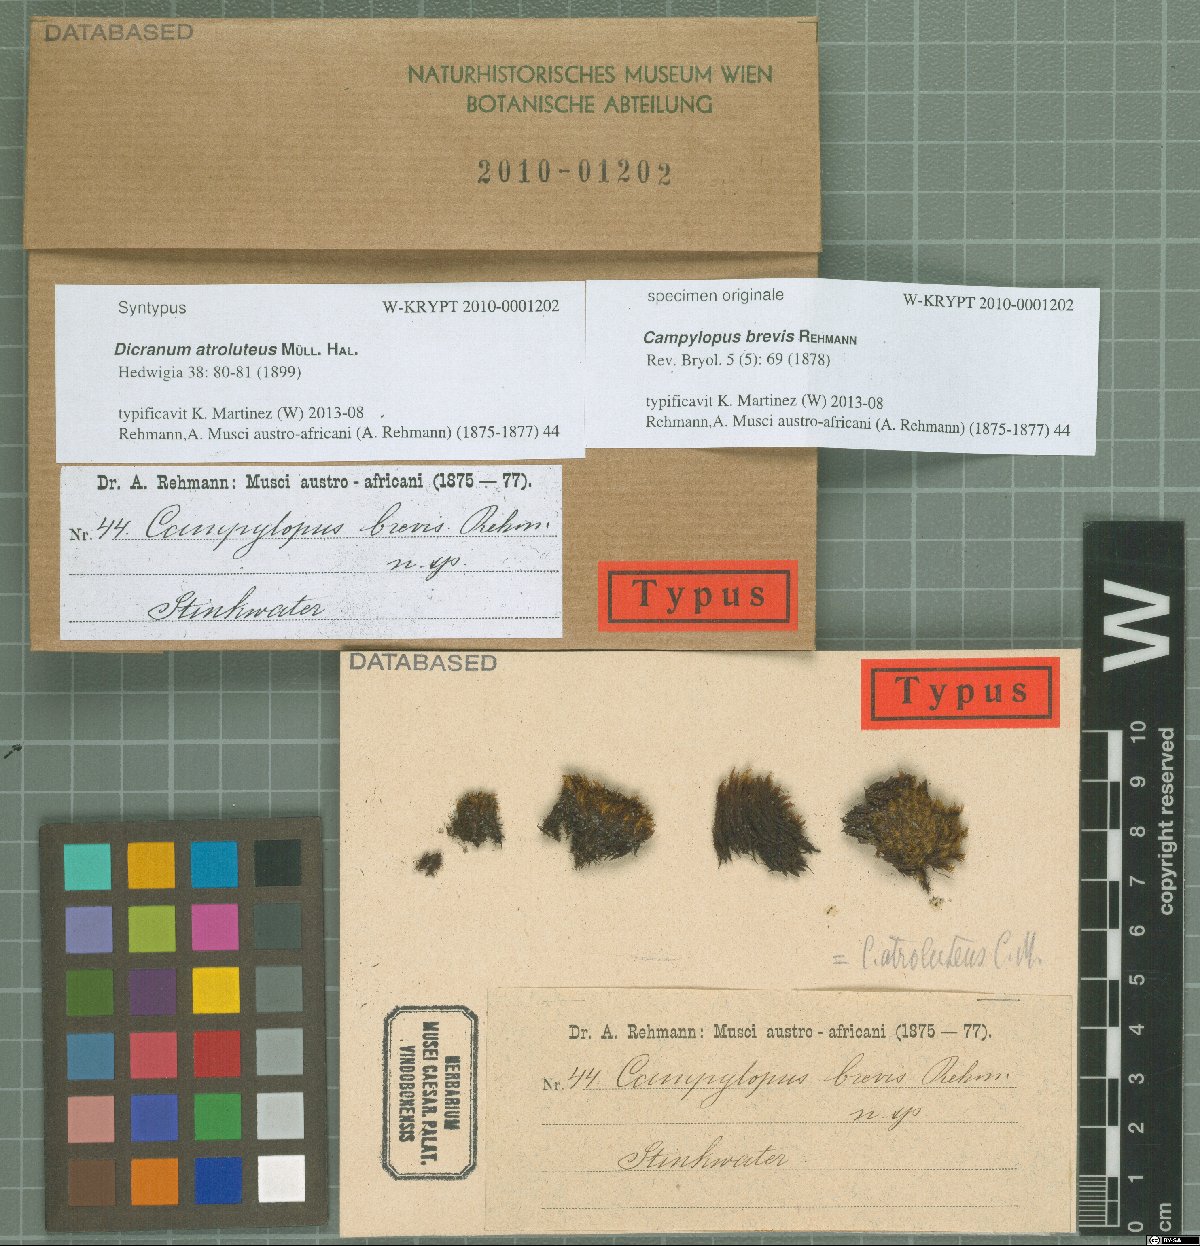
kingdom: Plantae
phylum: Bryophyta
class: Bryopsida
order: Dicranales
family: Leucobryaceae
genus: Campylopus
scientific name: Campylopus bicolor
